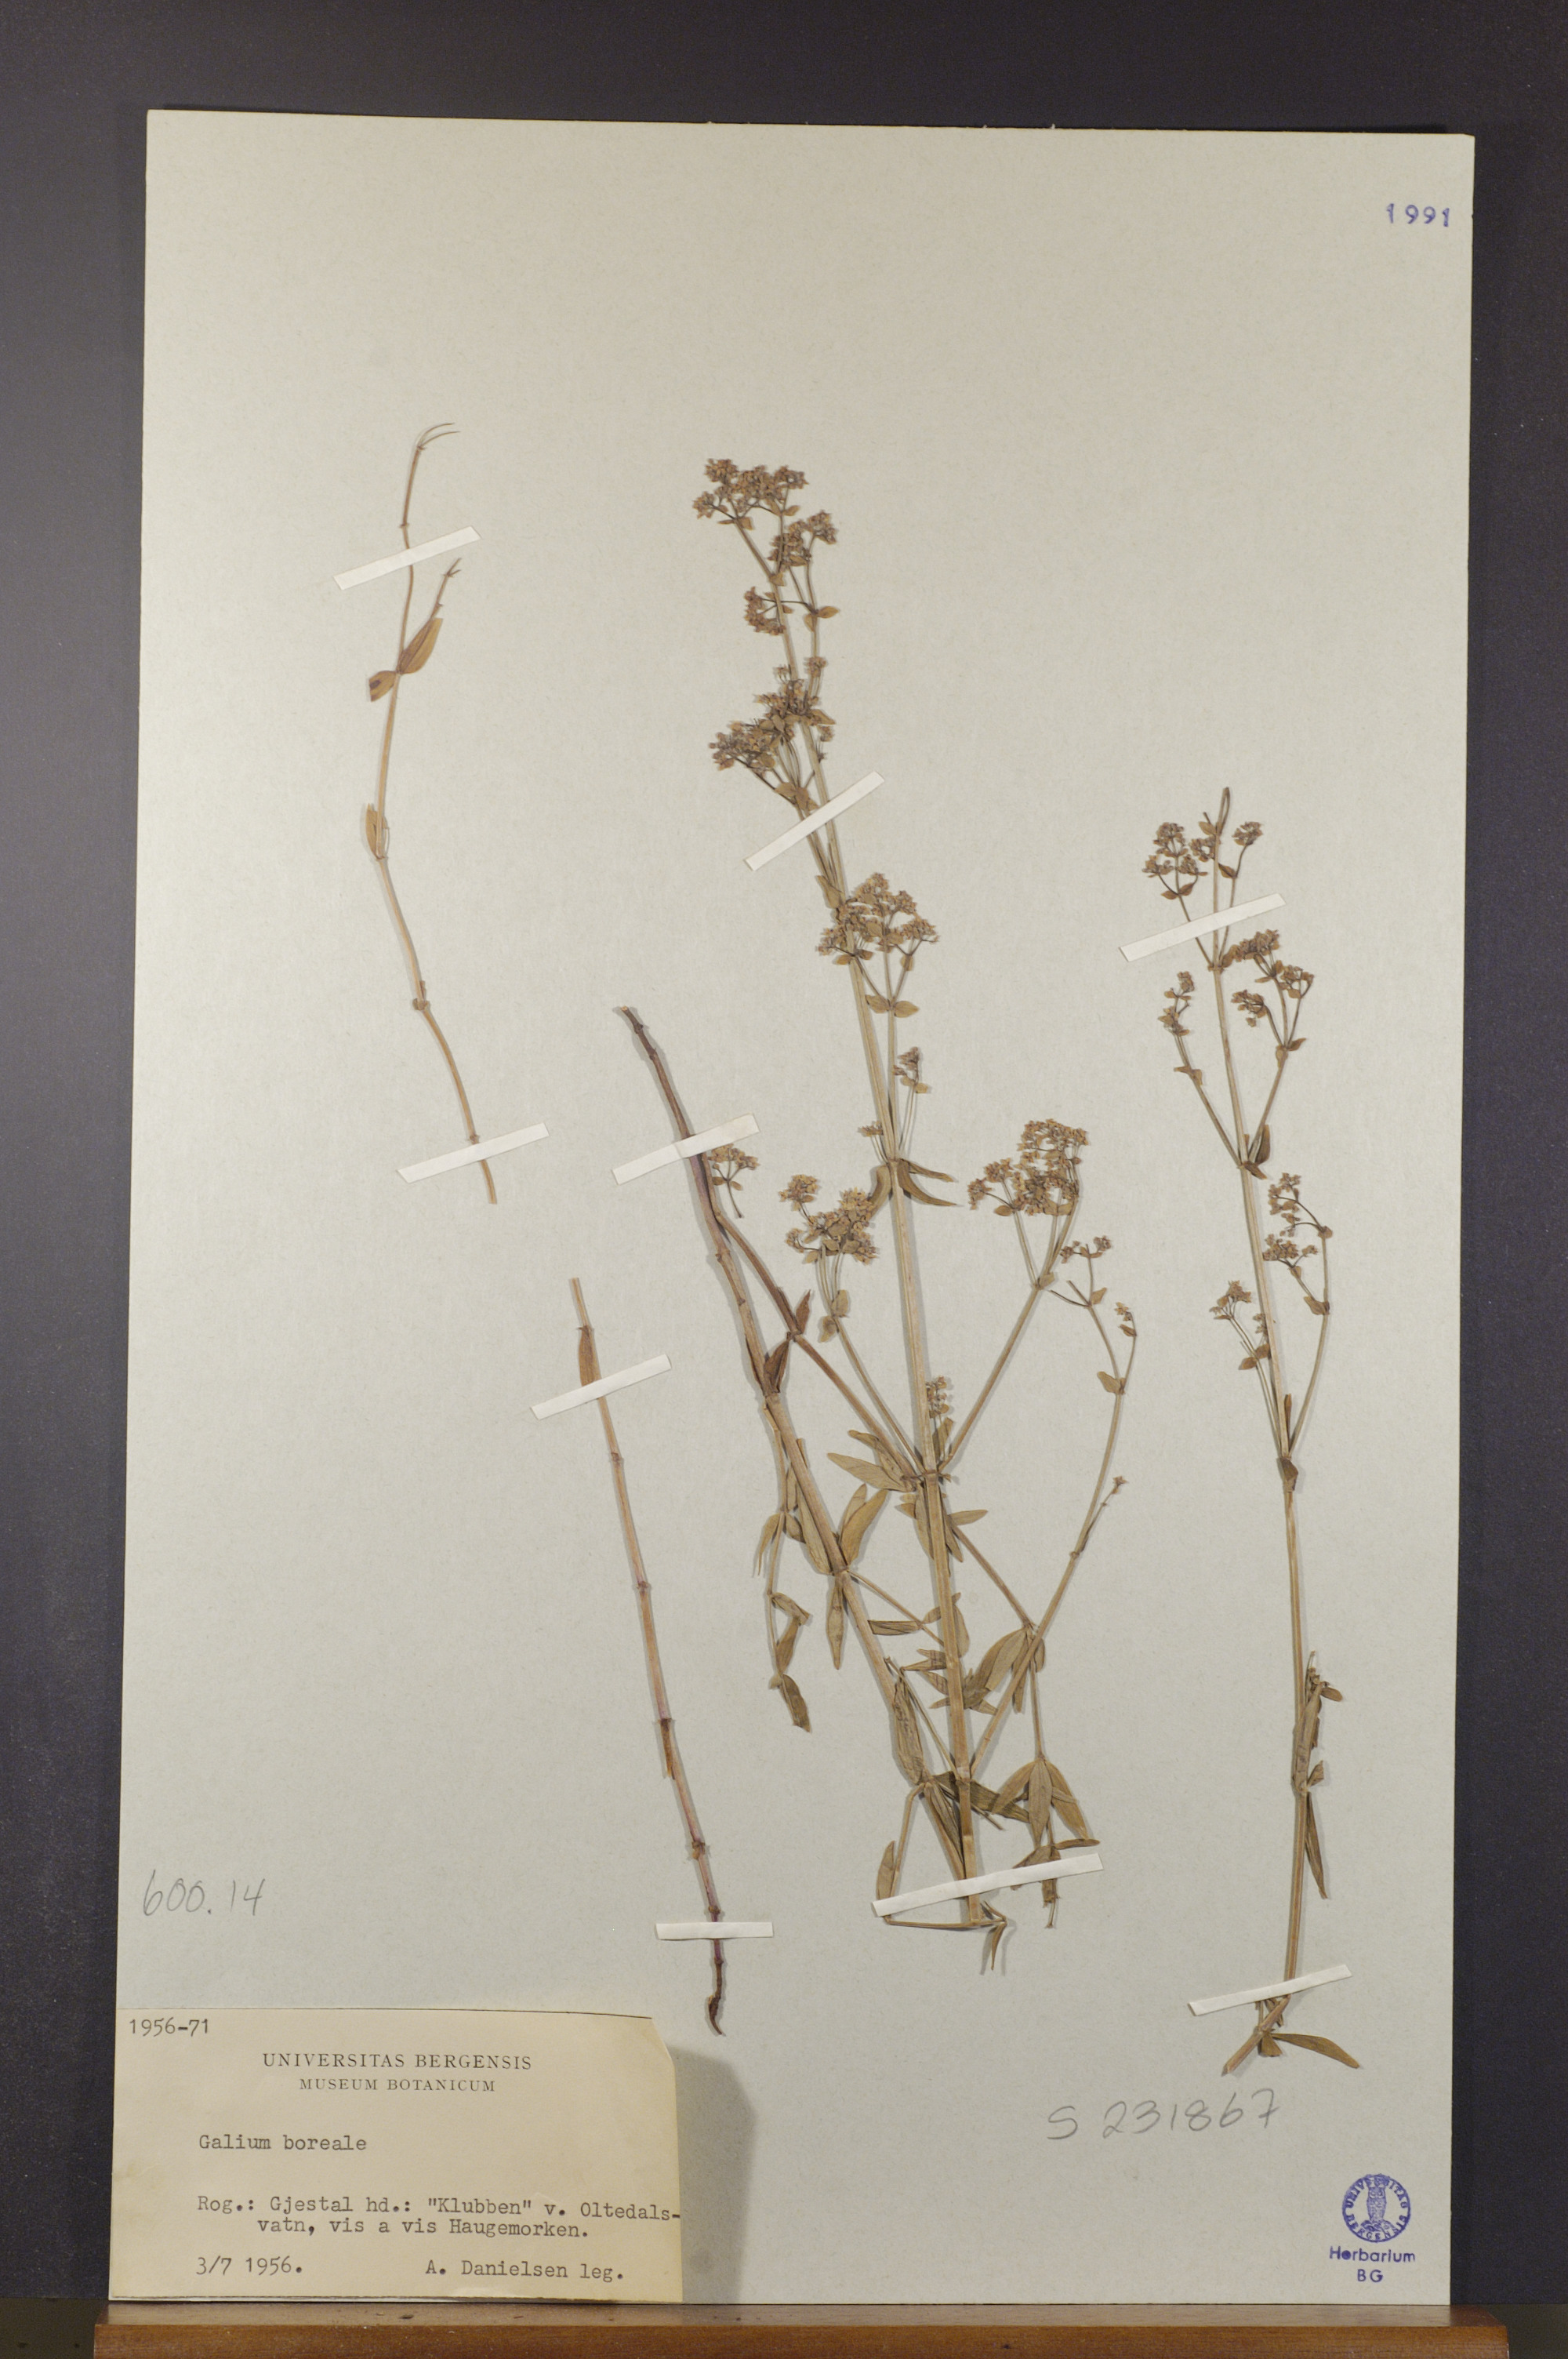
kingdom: Plantae
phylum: Tracheophyta
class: Magnoliopsida
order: Gentianales
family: Rubiaceae
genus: Galium
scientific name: Galium boreale
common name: Northern bedstraw
